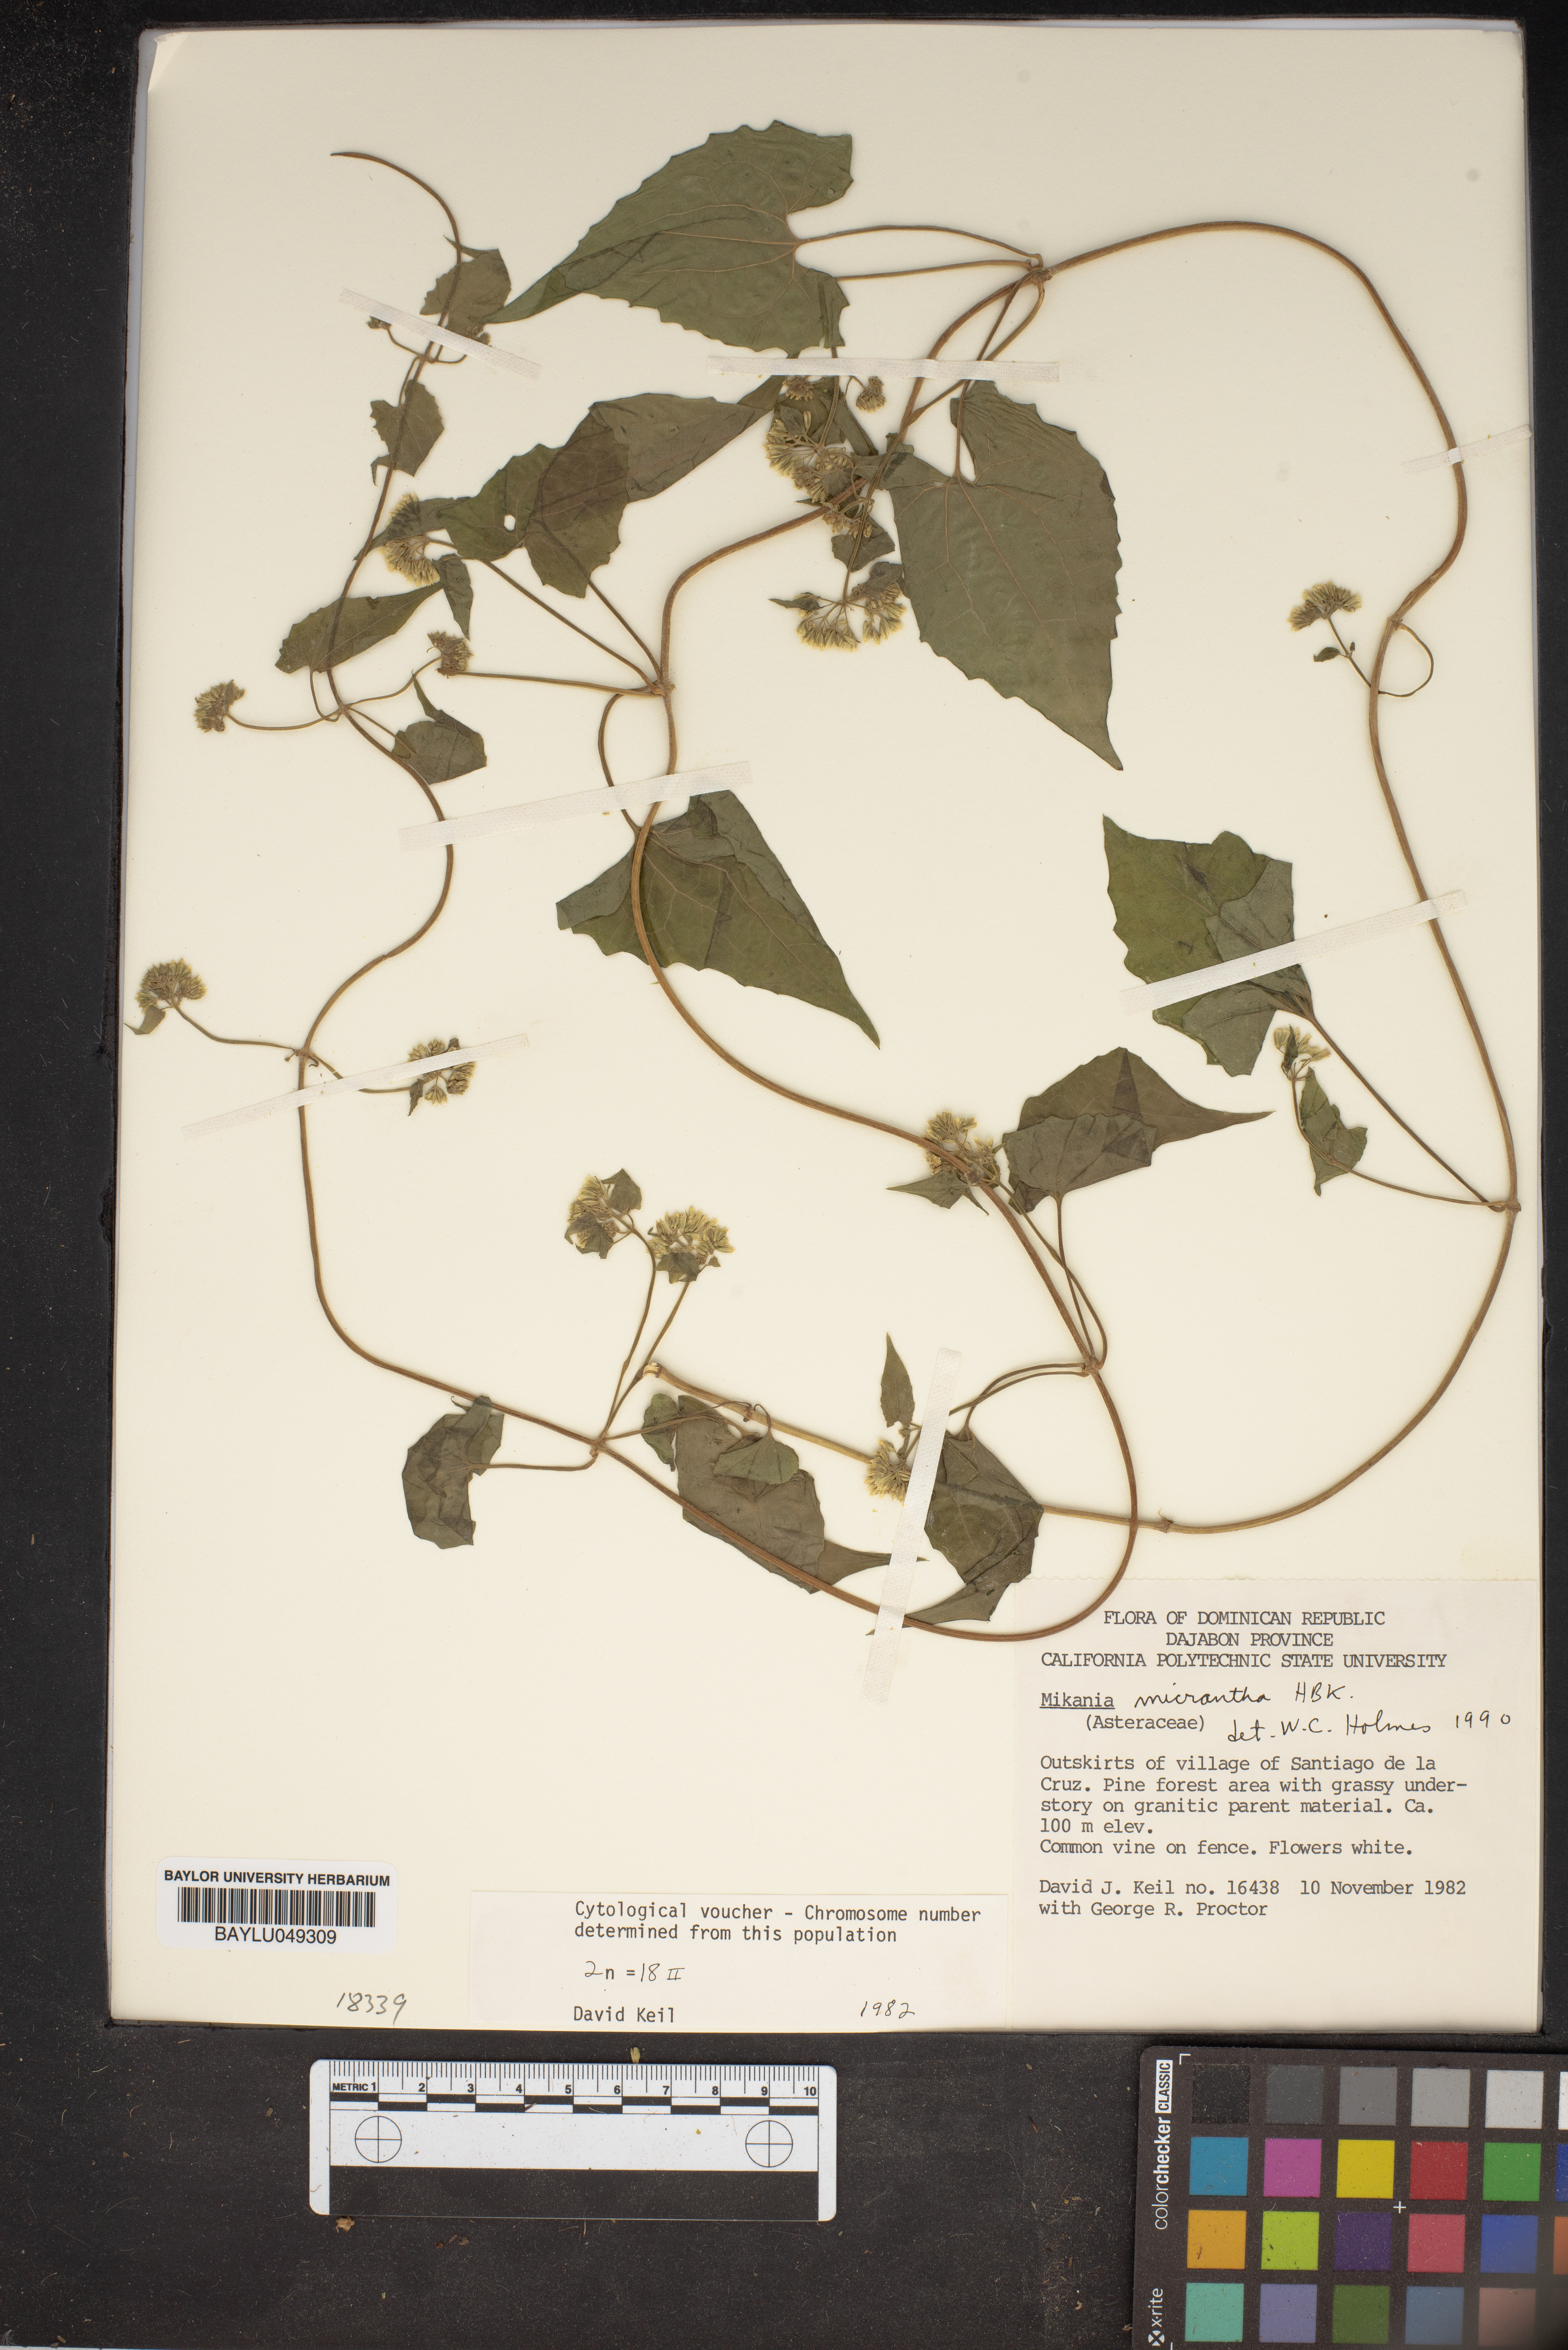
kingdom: Plantae
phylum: Tracheophyta
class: Magnoliopsida
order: Asterales
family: Asteraceae
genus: Mikania
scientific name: Mikania micrantha
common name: Mile-a-minute
